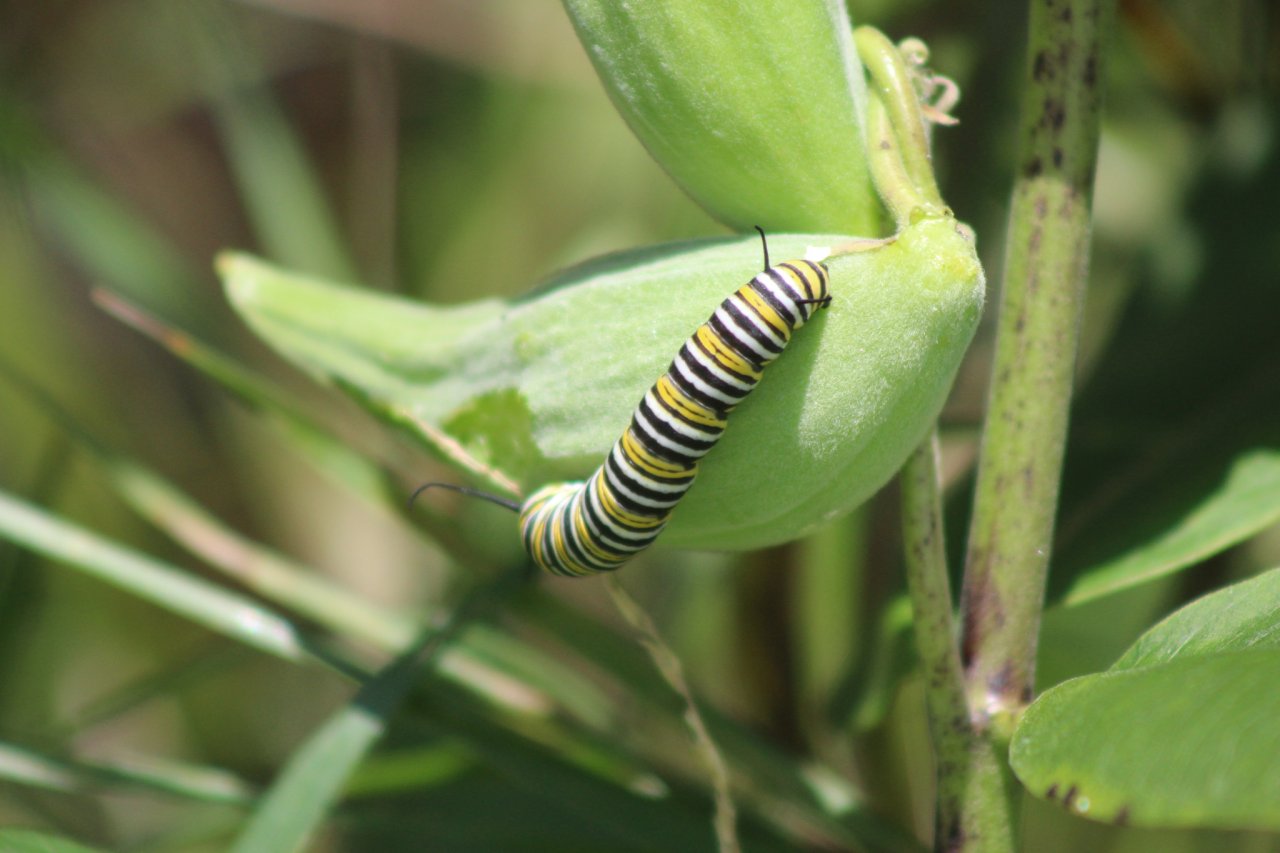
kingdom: Animalia
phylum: Arthropoda
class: Insecta
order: Lepidoptera
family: Nymphalidae
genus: Danaus
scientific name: Danaus plexippus
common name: Monarch
